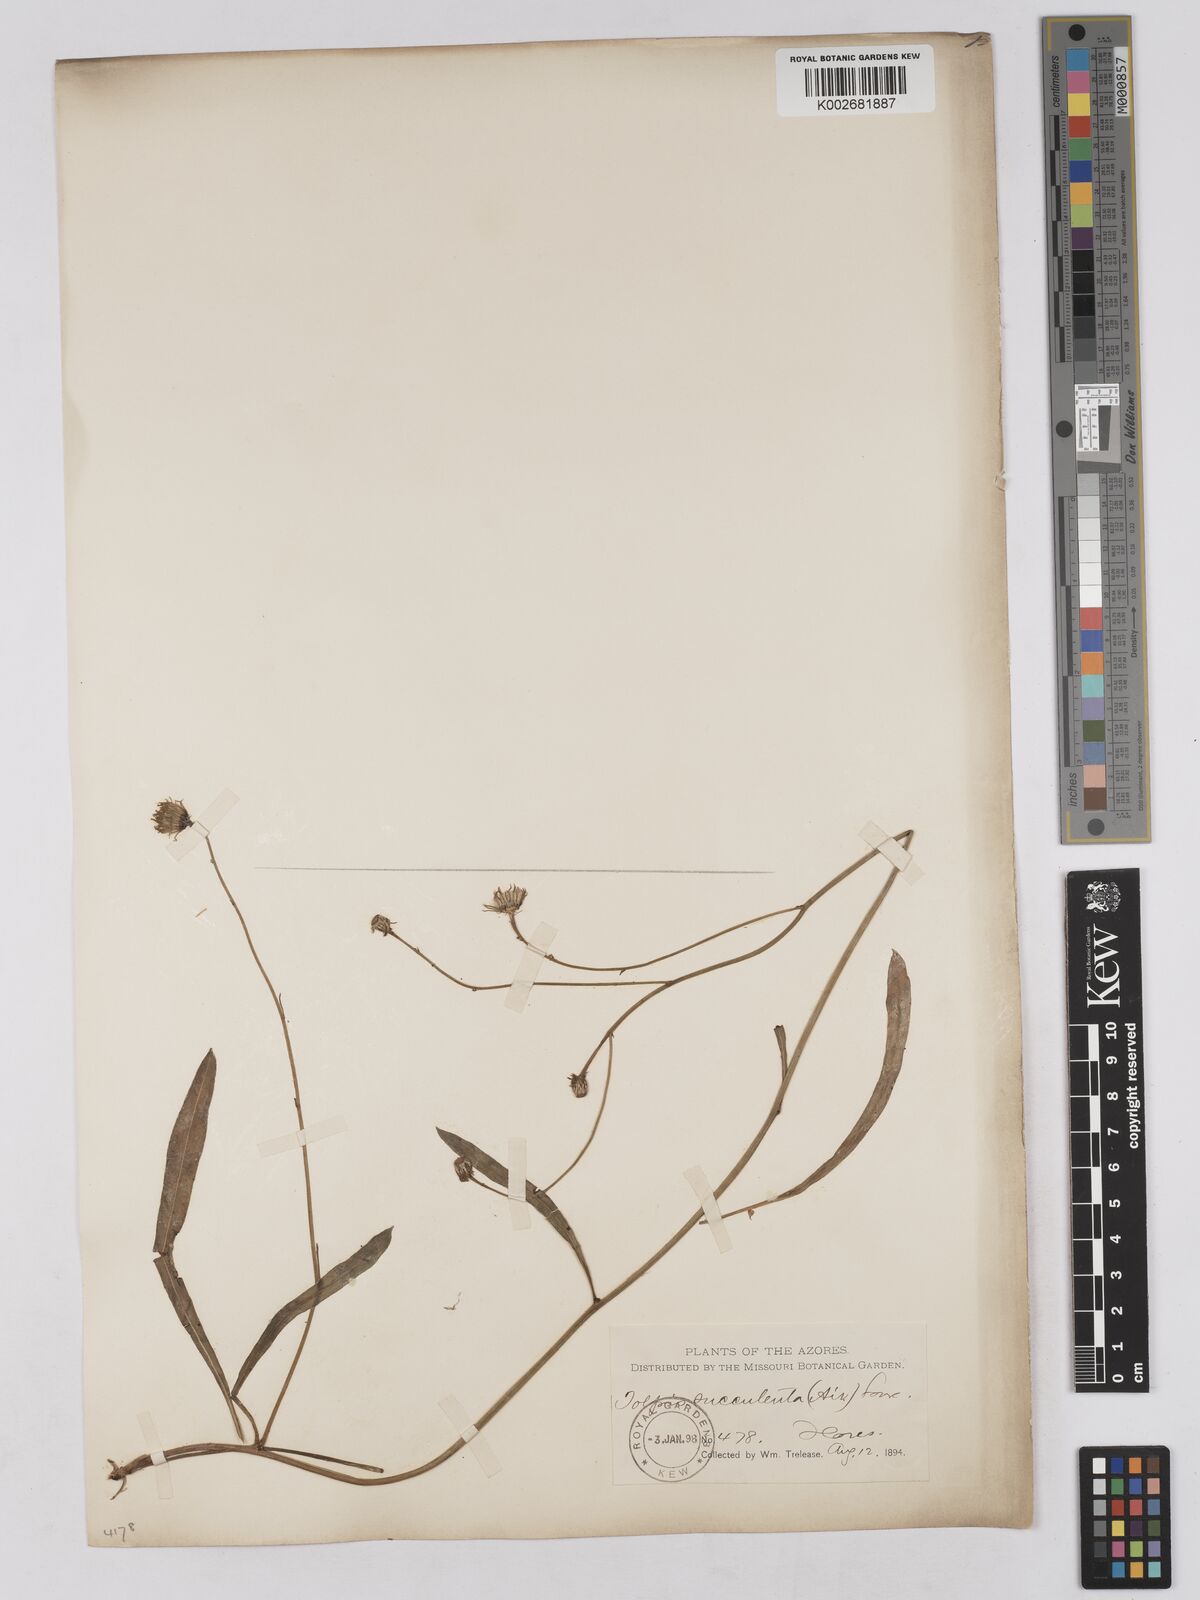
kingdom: Plantae
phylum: Tracheophyta
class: Magnoliopsida
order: Asterales
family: Asteraceae
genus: Tolpis
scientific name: Tolpis succulenta
